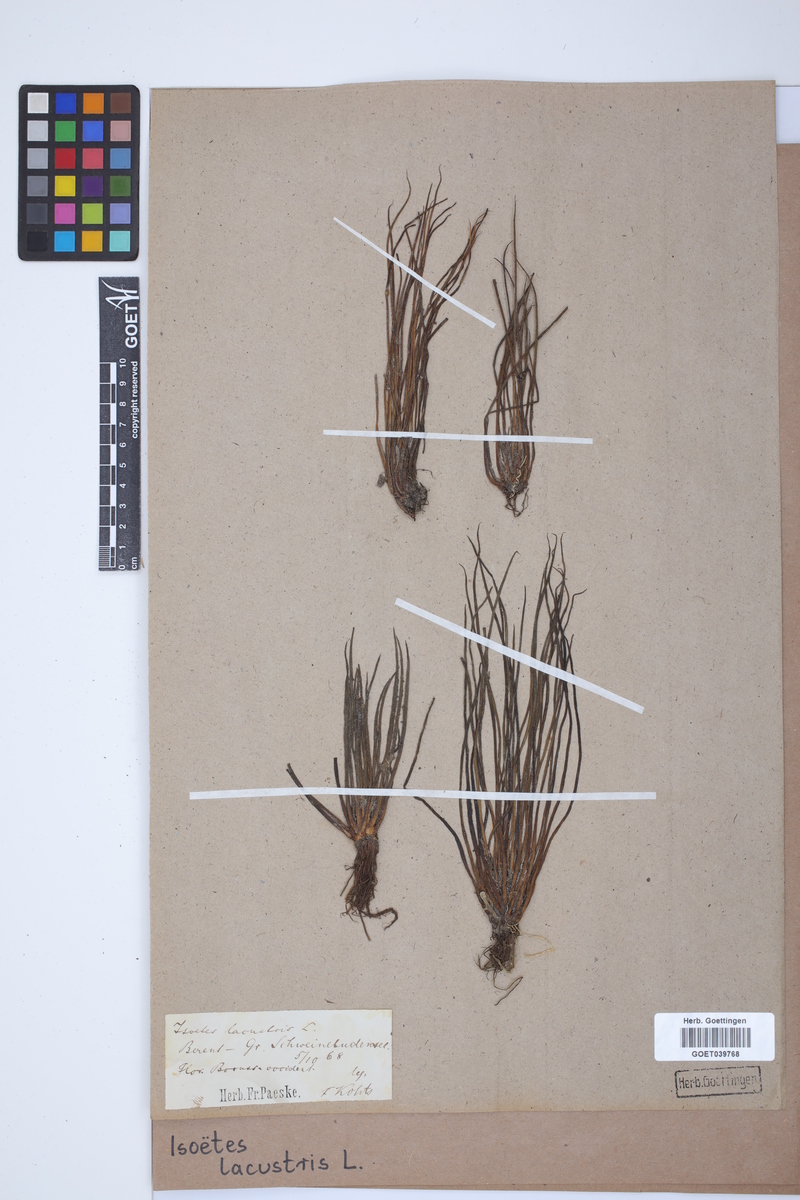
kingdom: Plantae
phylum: Tracheophyta
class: Lycopodiopsida
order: Isoetales
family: Isoetaceae
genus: Isoetes
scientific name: Isoetes lacustris
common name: Common quillwort
